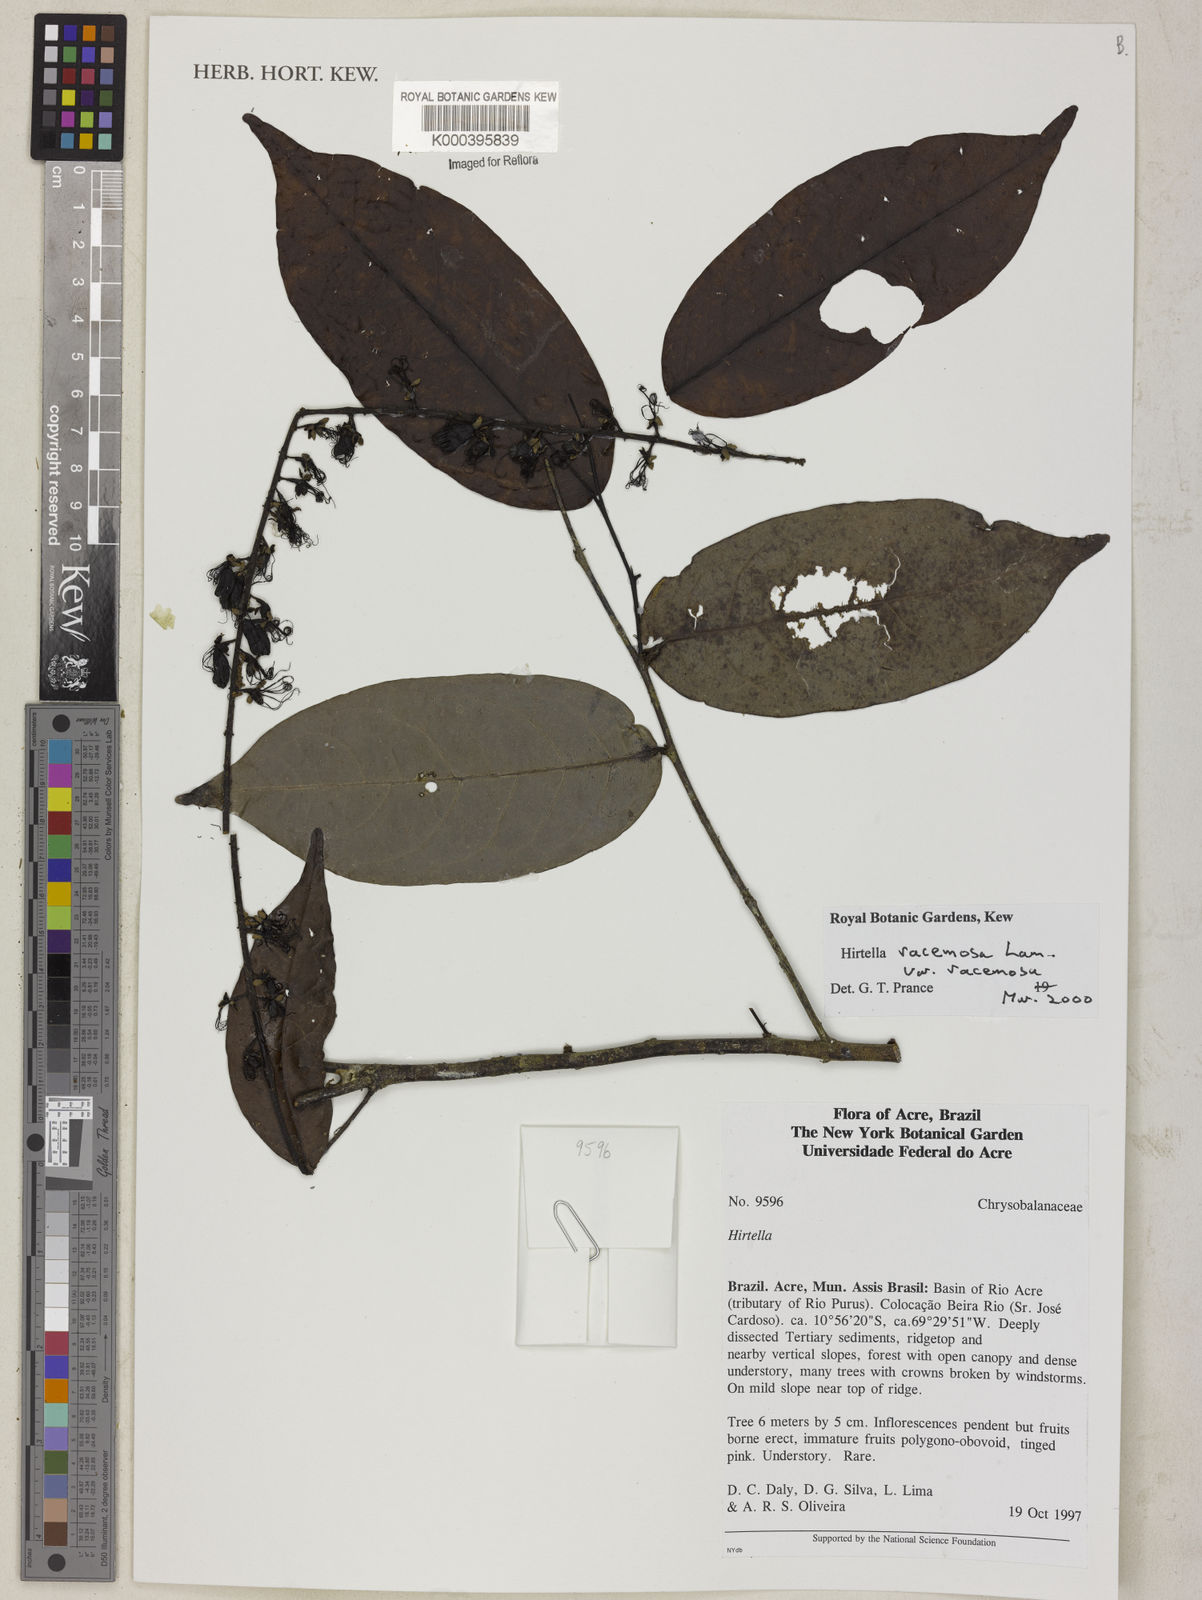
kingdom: Plantae
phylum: Tracheophyta
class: Magnoliopsida
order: Malpighiales
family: Chrysobalanaceae
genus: Hirtella
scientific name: Hirtella racemosa
